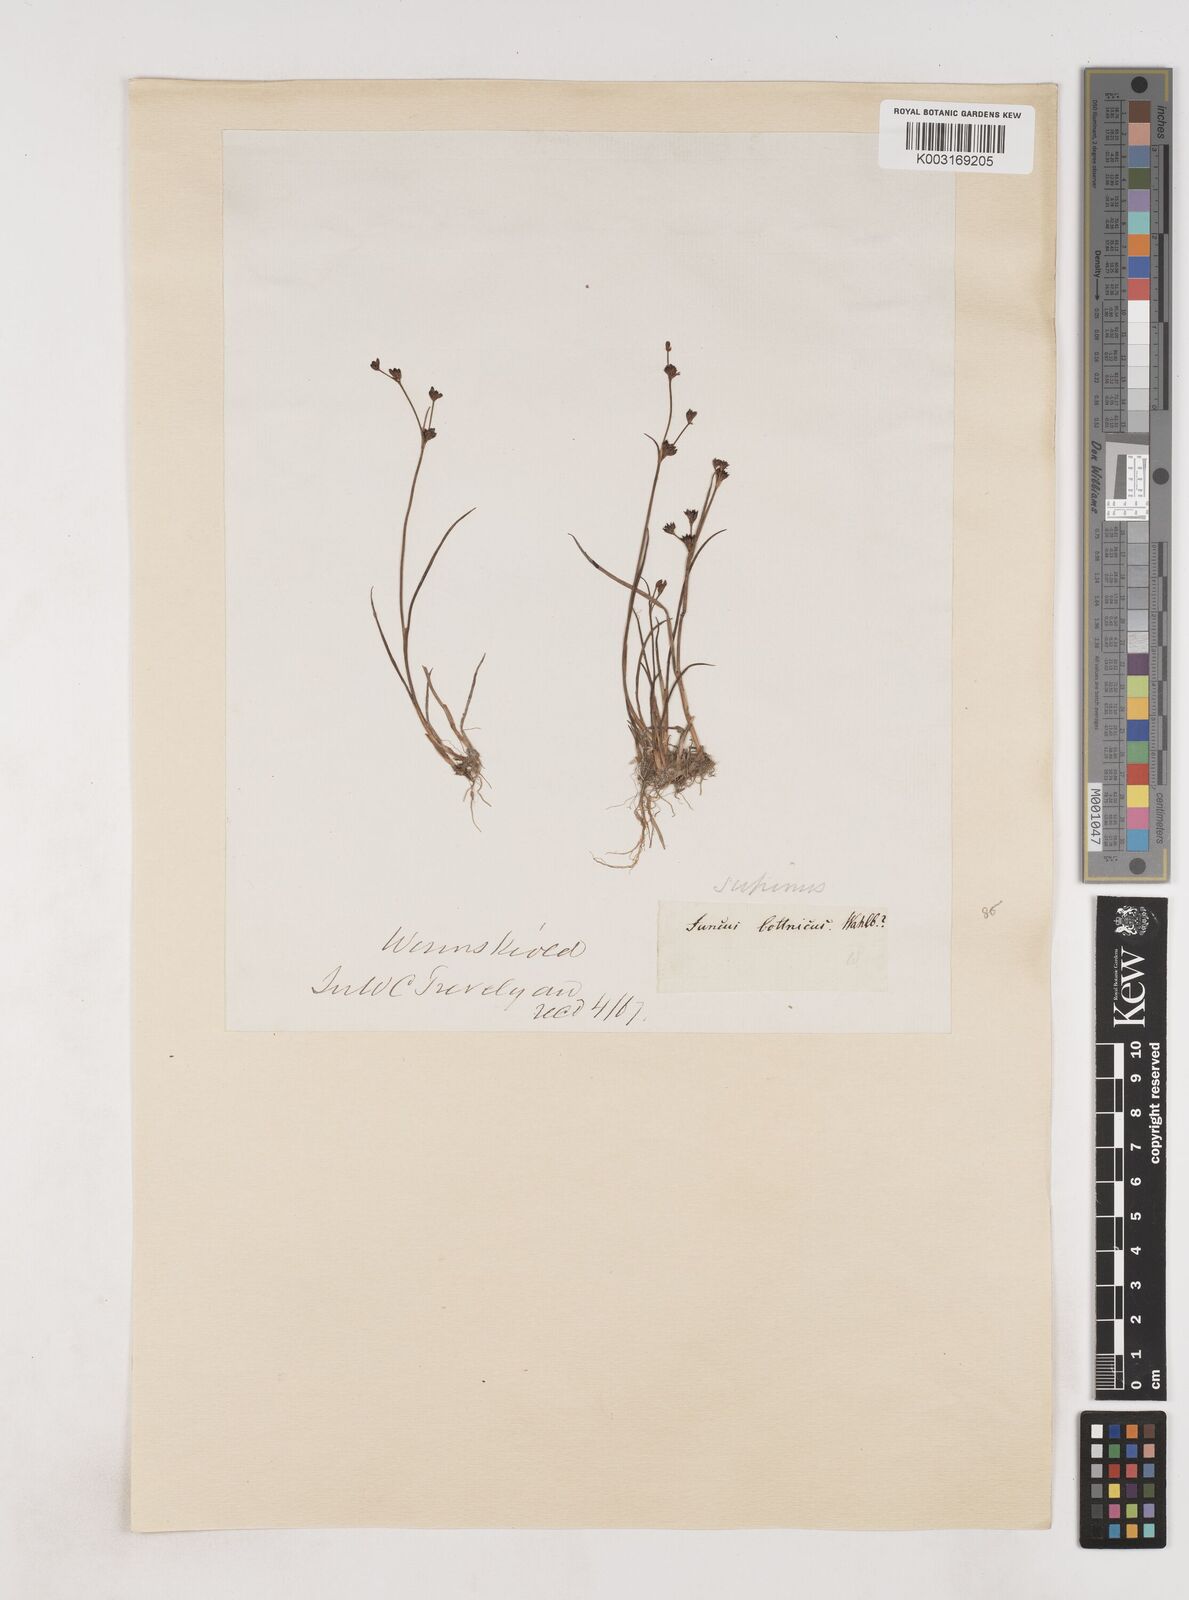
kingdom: Plantae
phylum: Tracheophyta
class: Liliopsida
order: Poales
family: Juncaceae
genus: Juncus
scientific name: Juncus bulbosus
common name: Bulbous rush
